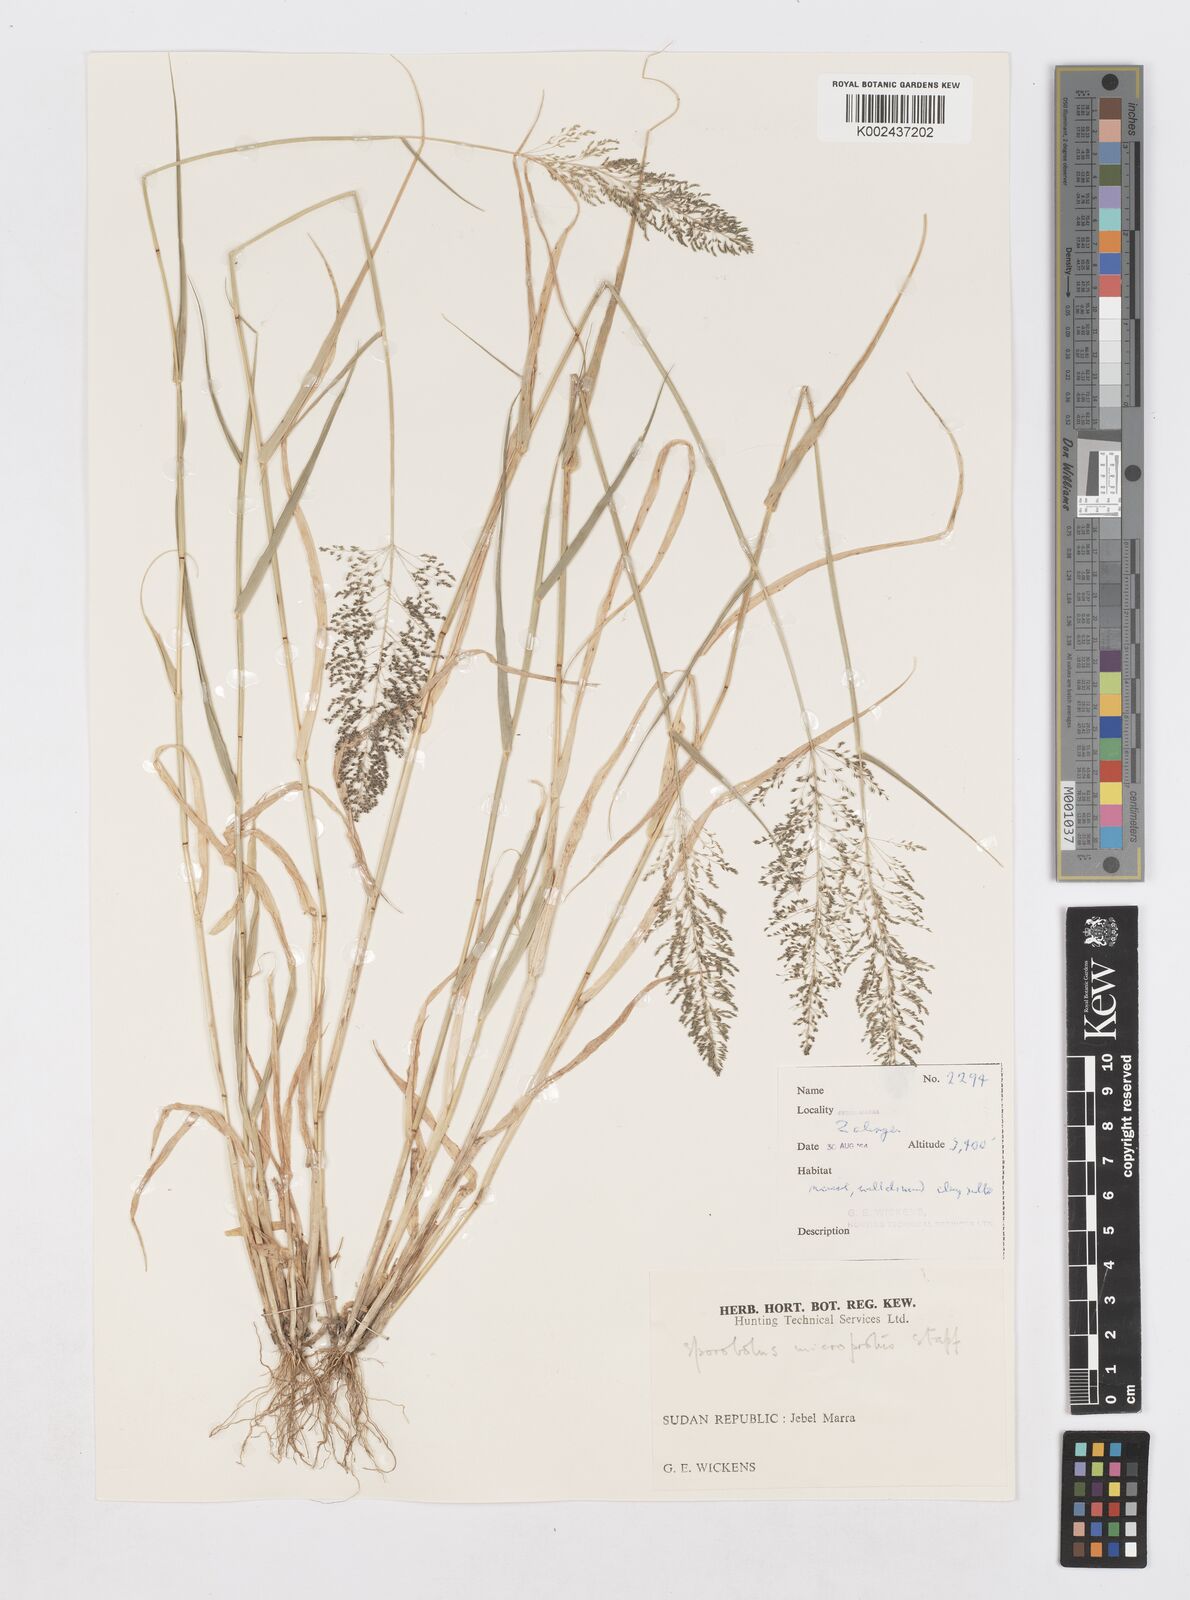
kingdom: Plantae
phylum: Tracheophyta
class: Liliopsida
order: Poales
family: Poaceae
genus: Sporobolus
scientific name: Sporobolus microprotus
